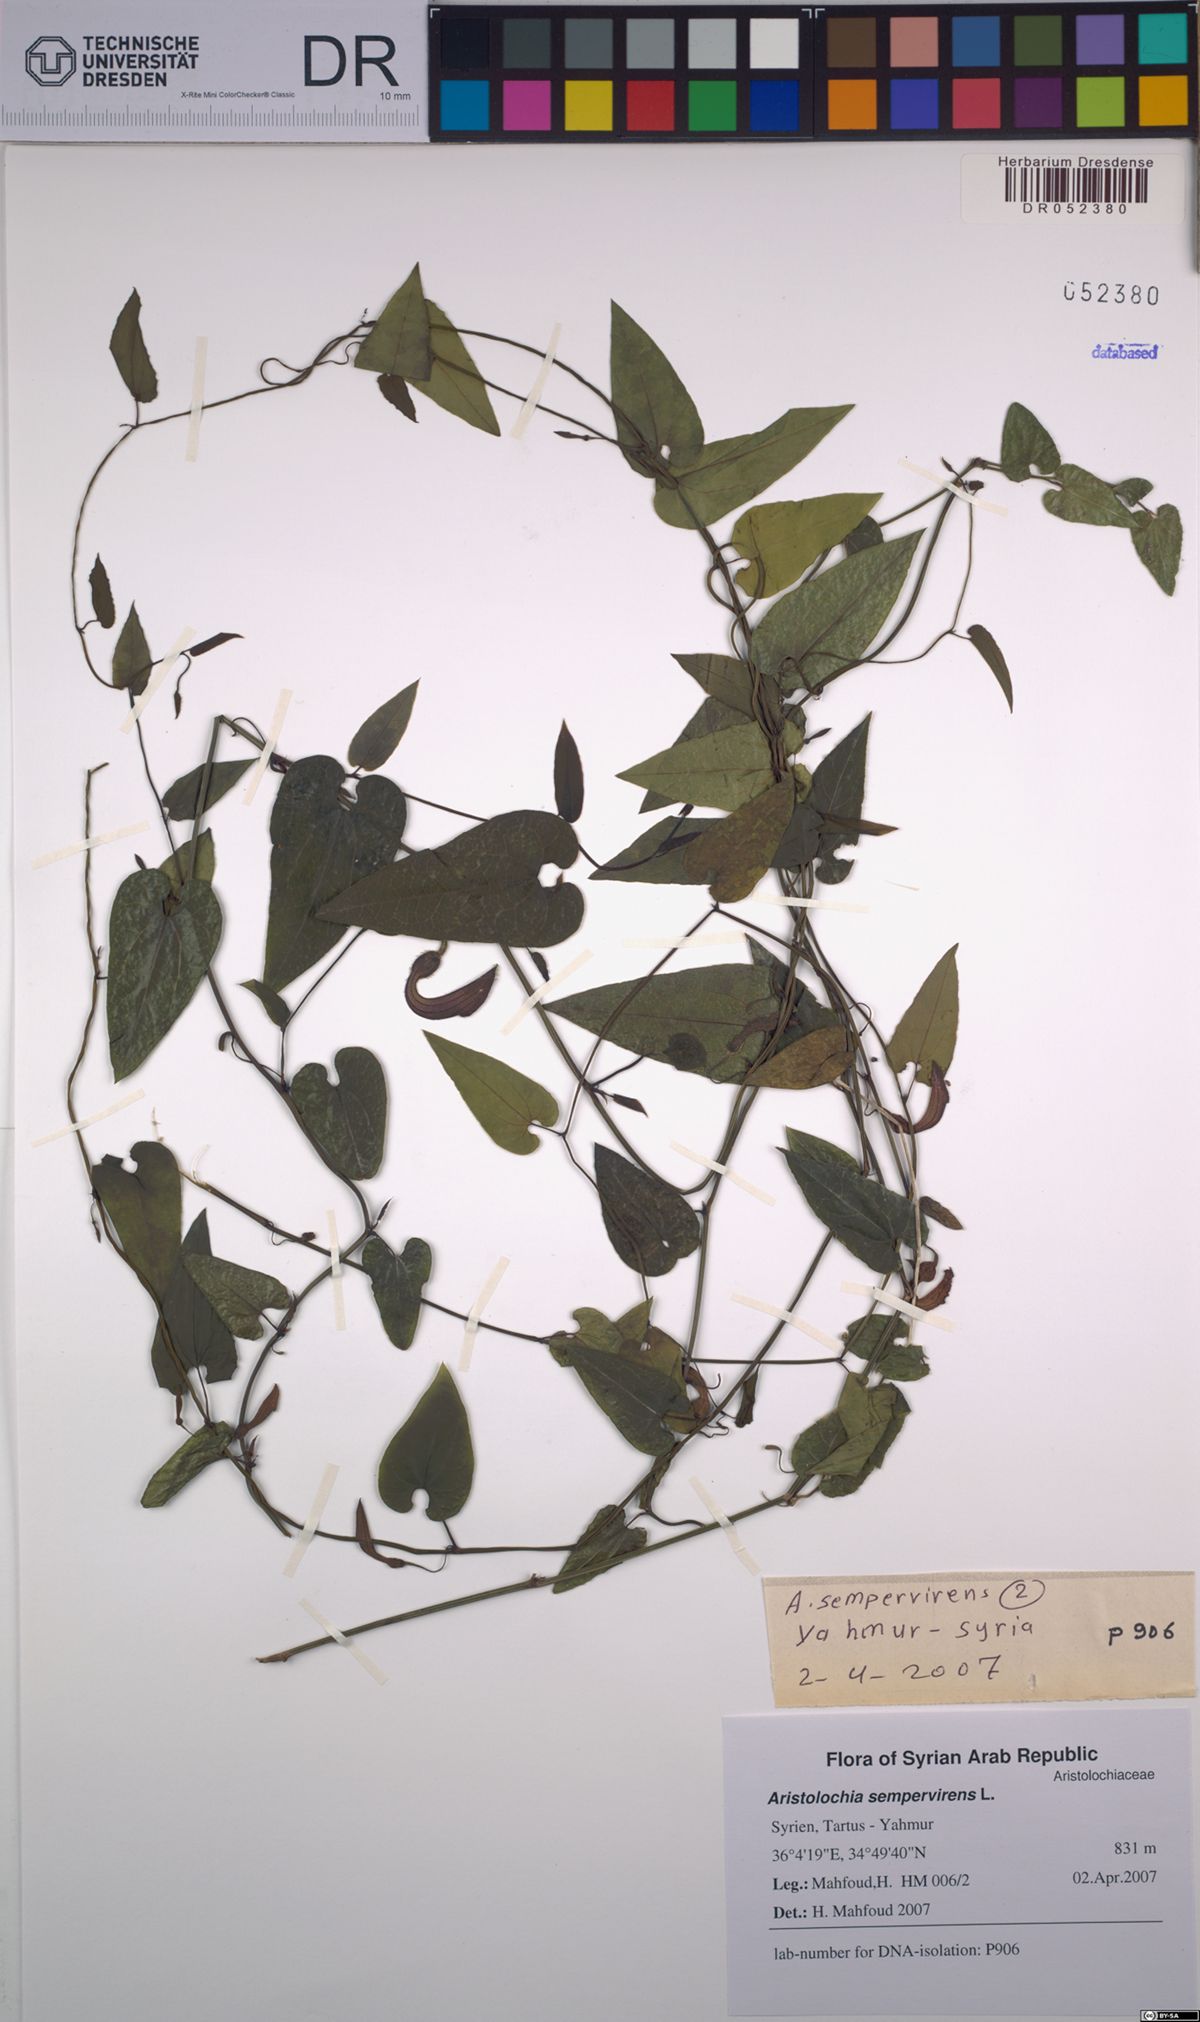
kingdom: Plantae
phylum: Tracheophyta
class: Magnoliopsida
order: Piperales
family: Aristolochiaceae
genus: Aristolochia
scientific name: Aristolochia sempervirens
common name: Long birthwort
